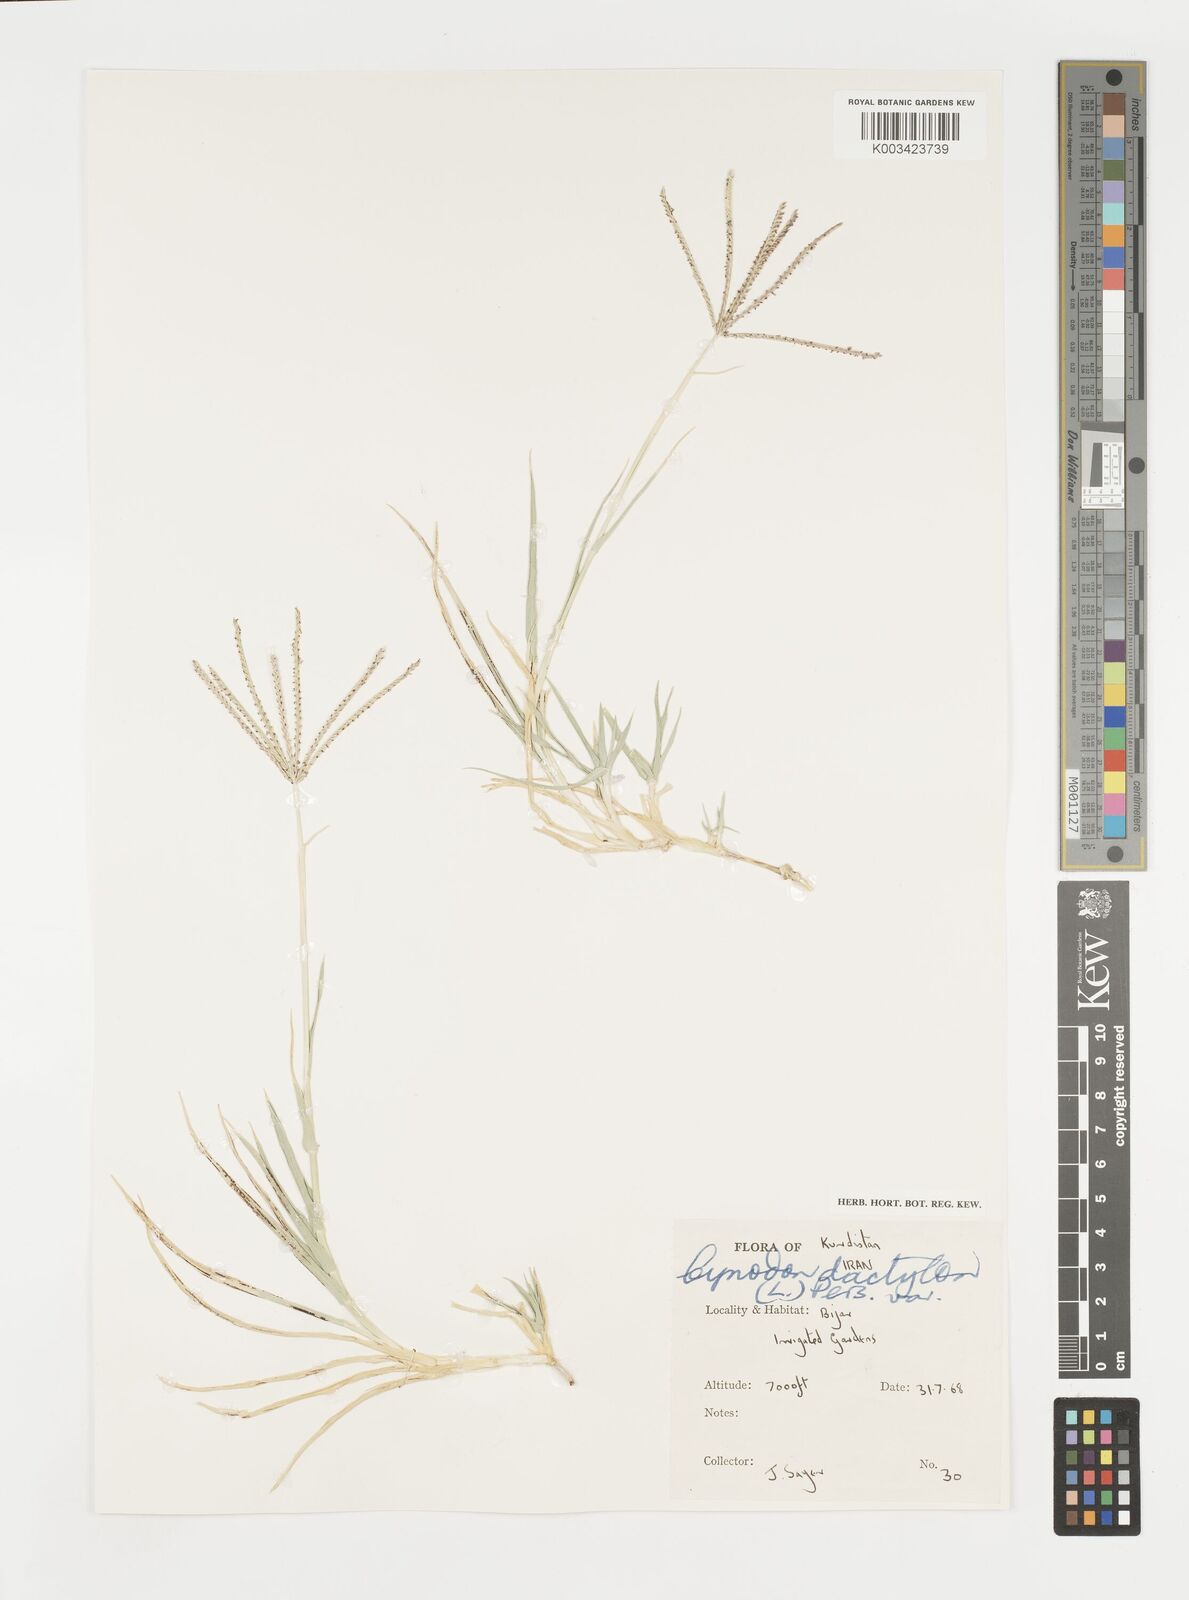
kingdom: Plantae
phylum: Tracheophyta
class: Liliopsida
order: Poales
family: Poaceae
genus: Cynodon
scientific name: Cynodon dactylon
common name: Bermuda grass
